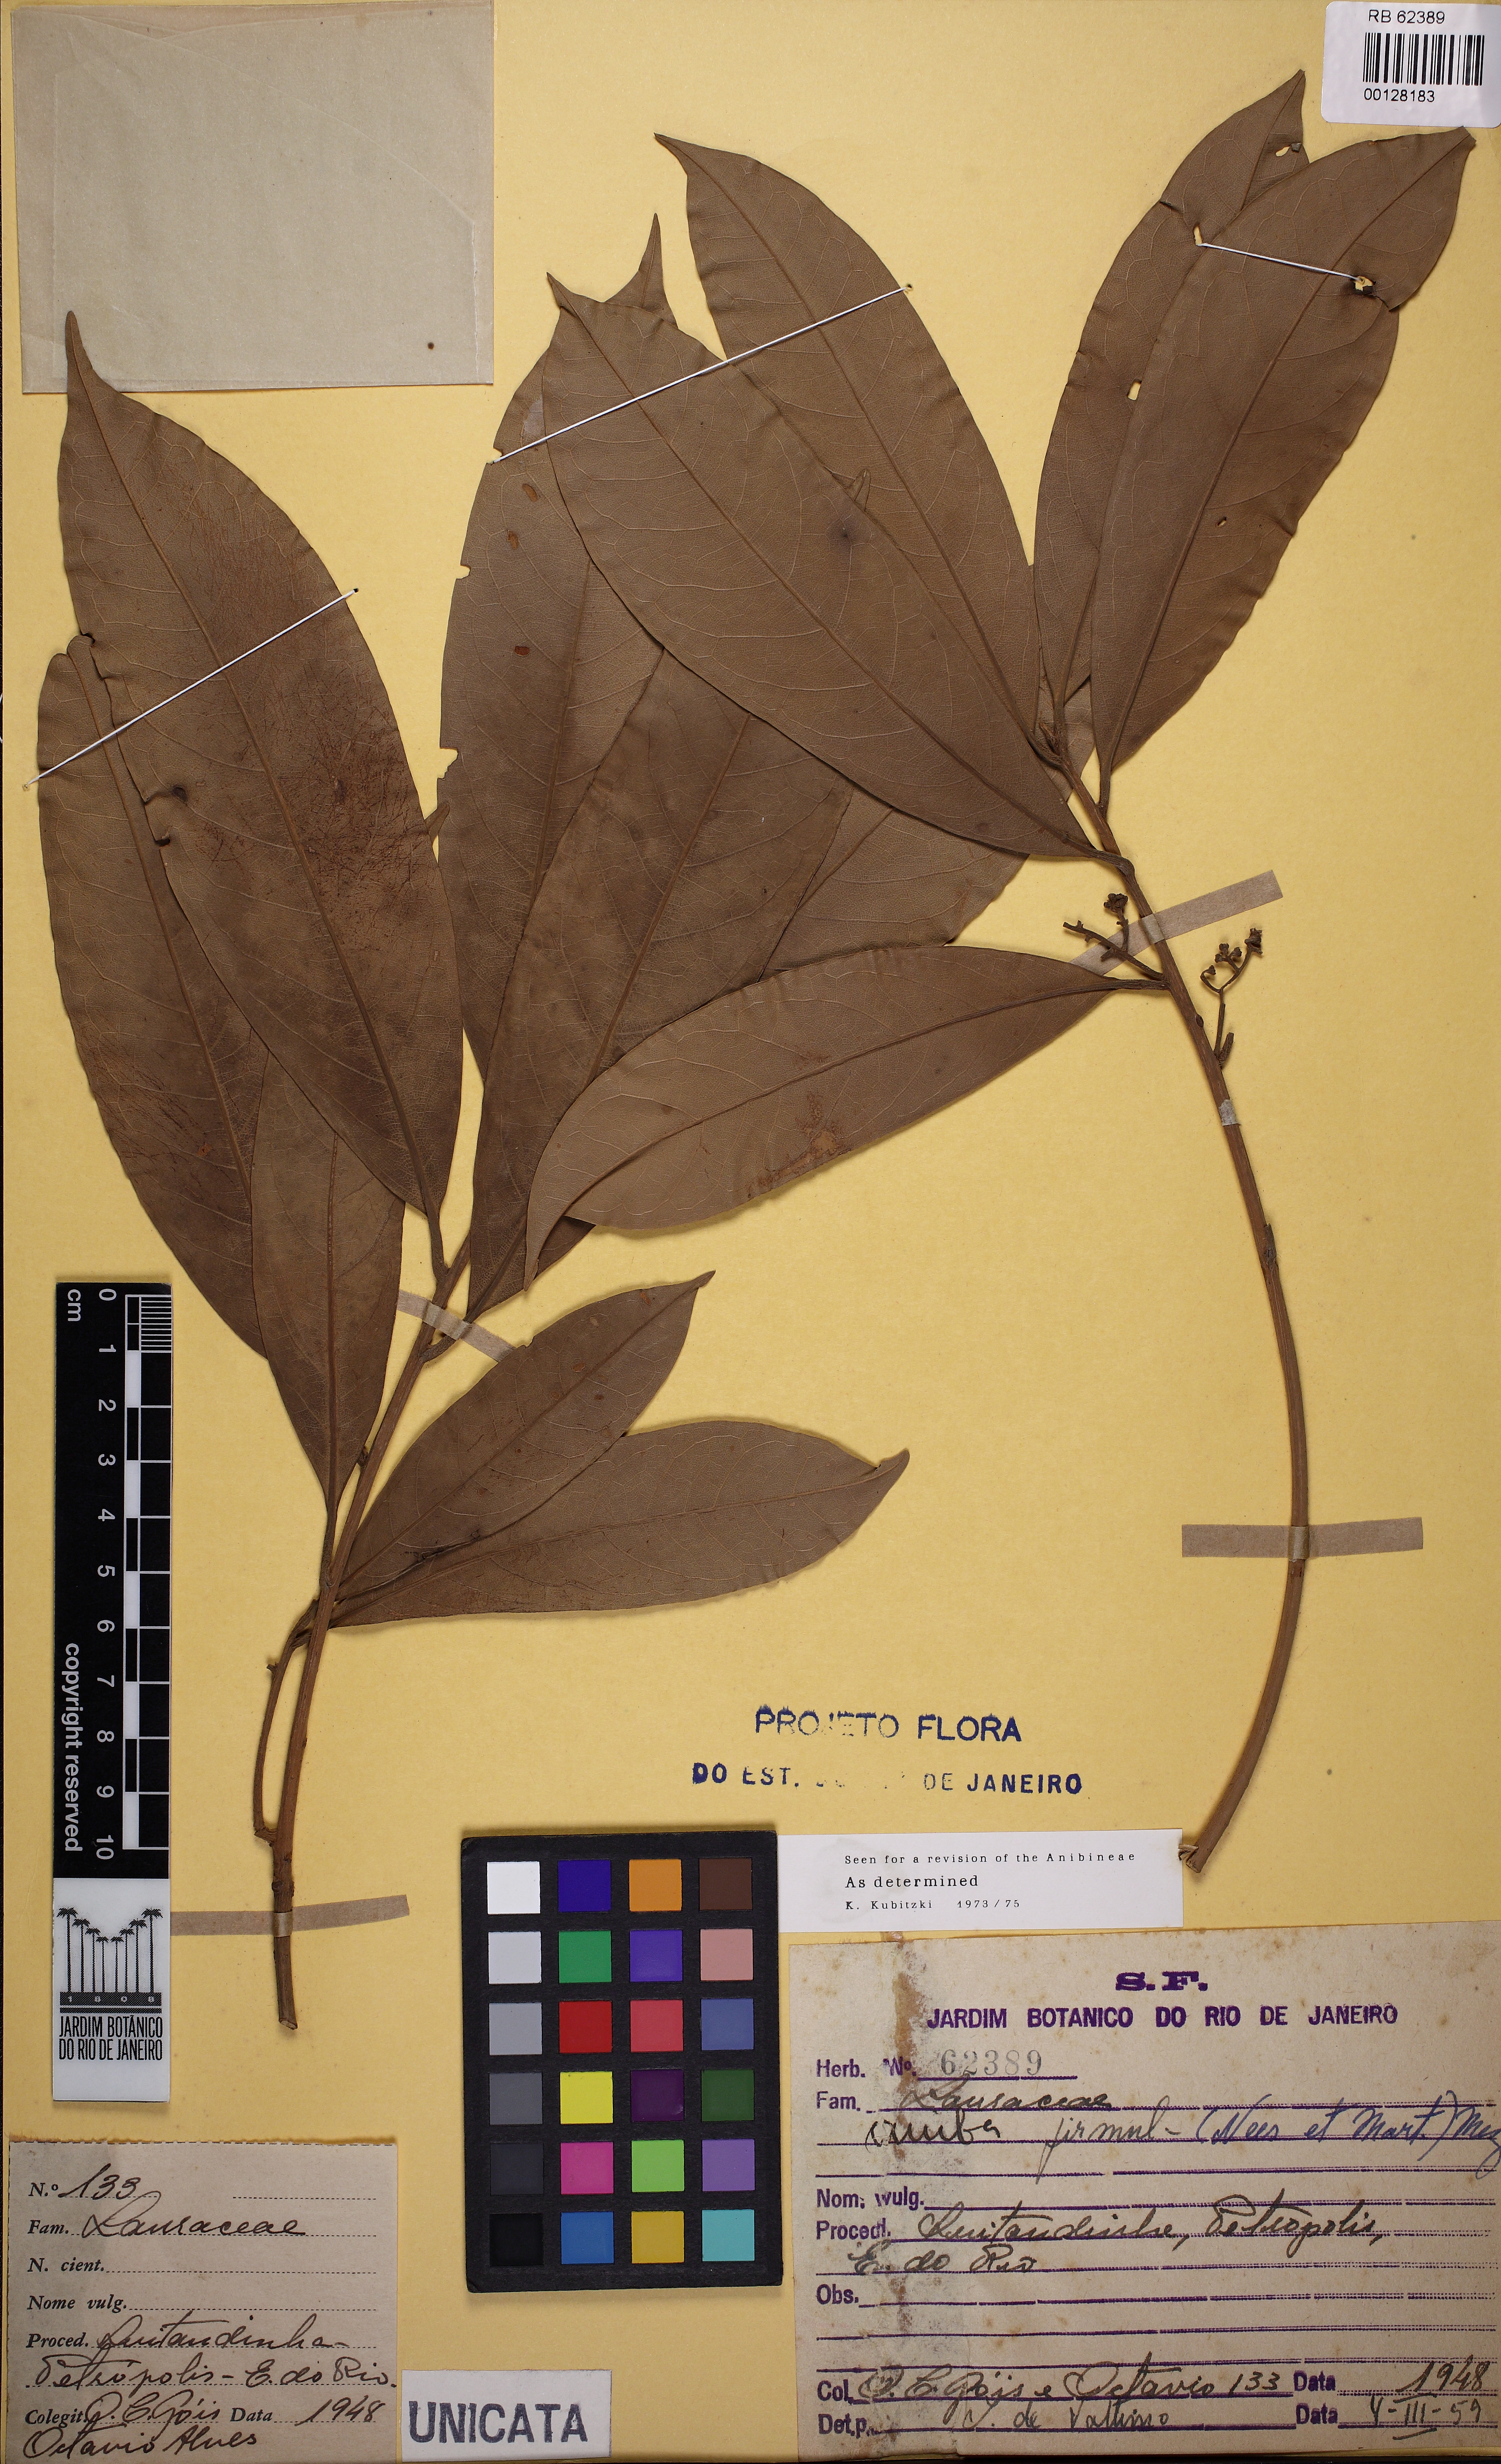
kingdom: Plantae
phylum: Tracheophyta
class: Magnoliopsida
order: Laurales
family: Lauraceae
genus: Aniba
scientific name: Aniba firmula
